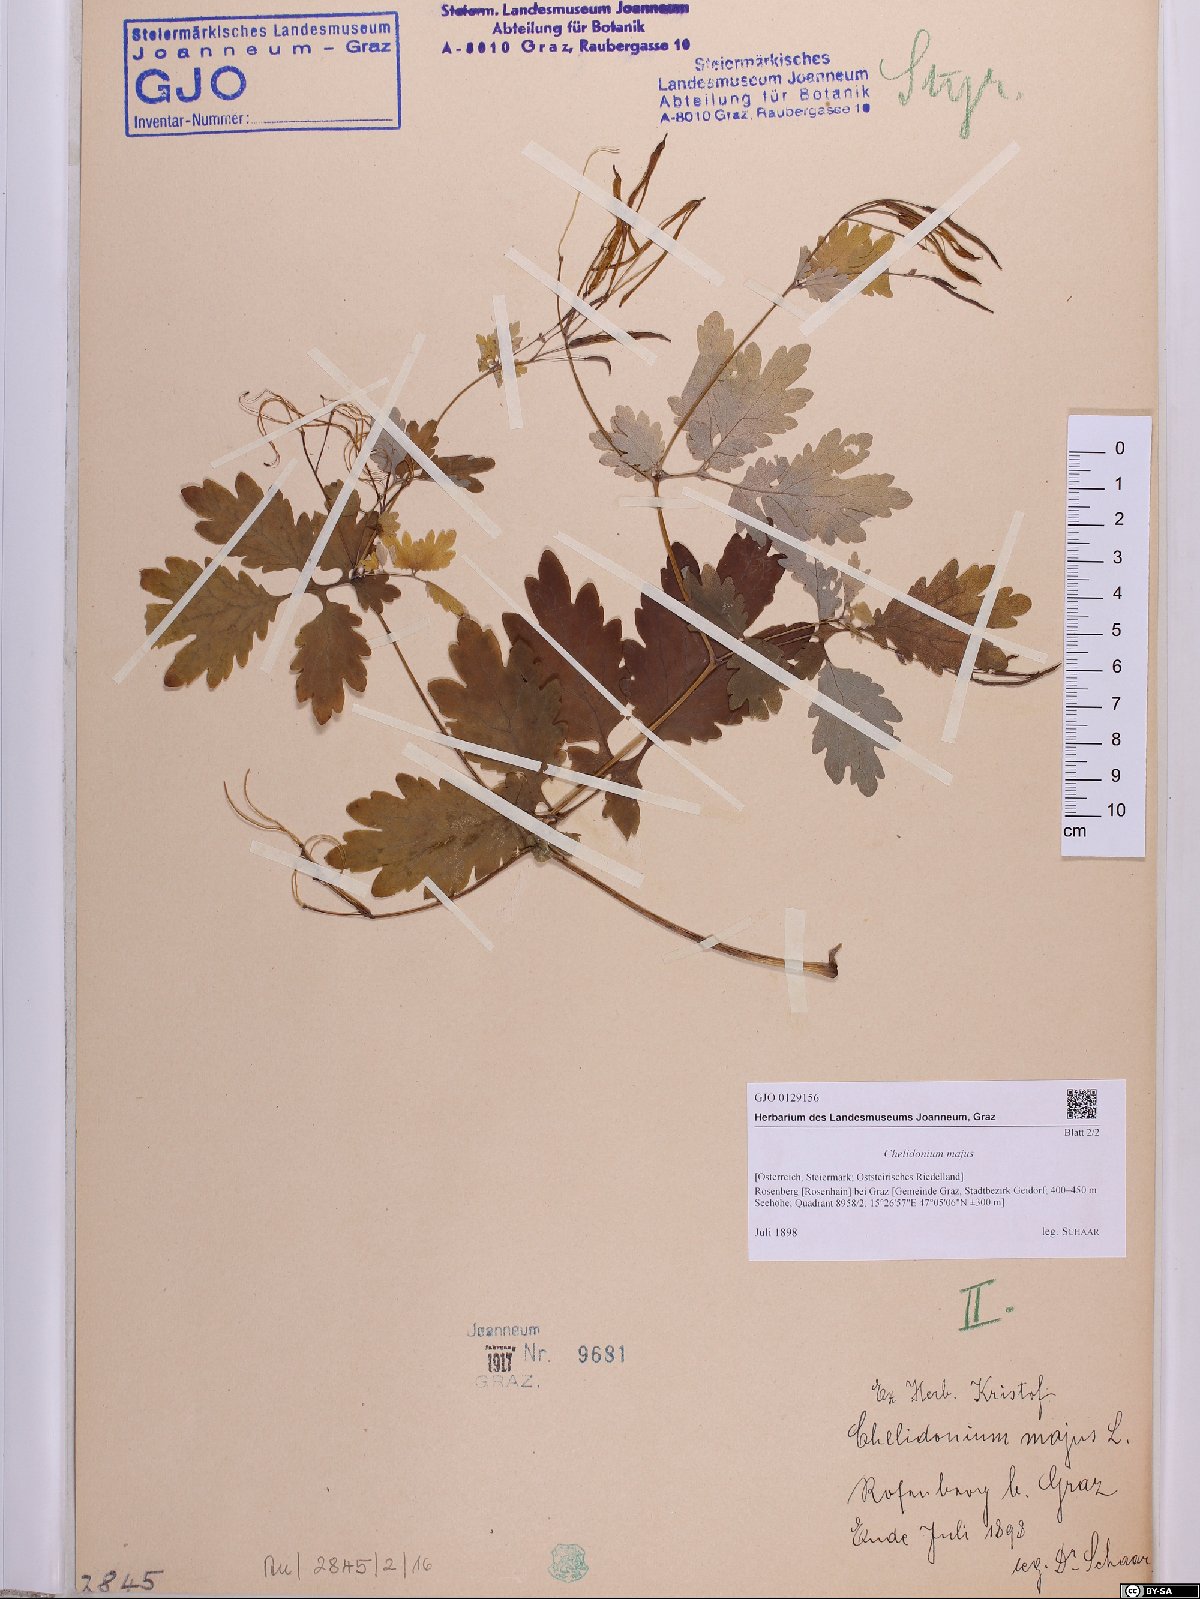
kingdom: Plantae
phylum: Tracheophyta
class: Magnoliopsida
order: Ranunculales
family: Papaveraceae
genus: Chelidonium
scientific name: Chelidonium majus
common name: Greater celandine
